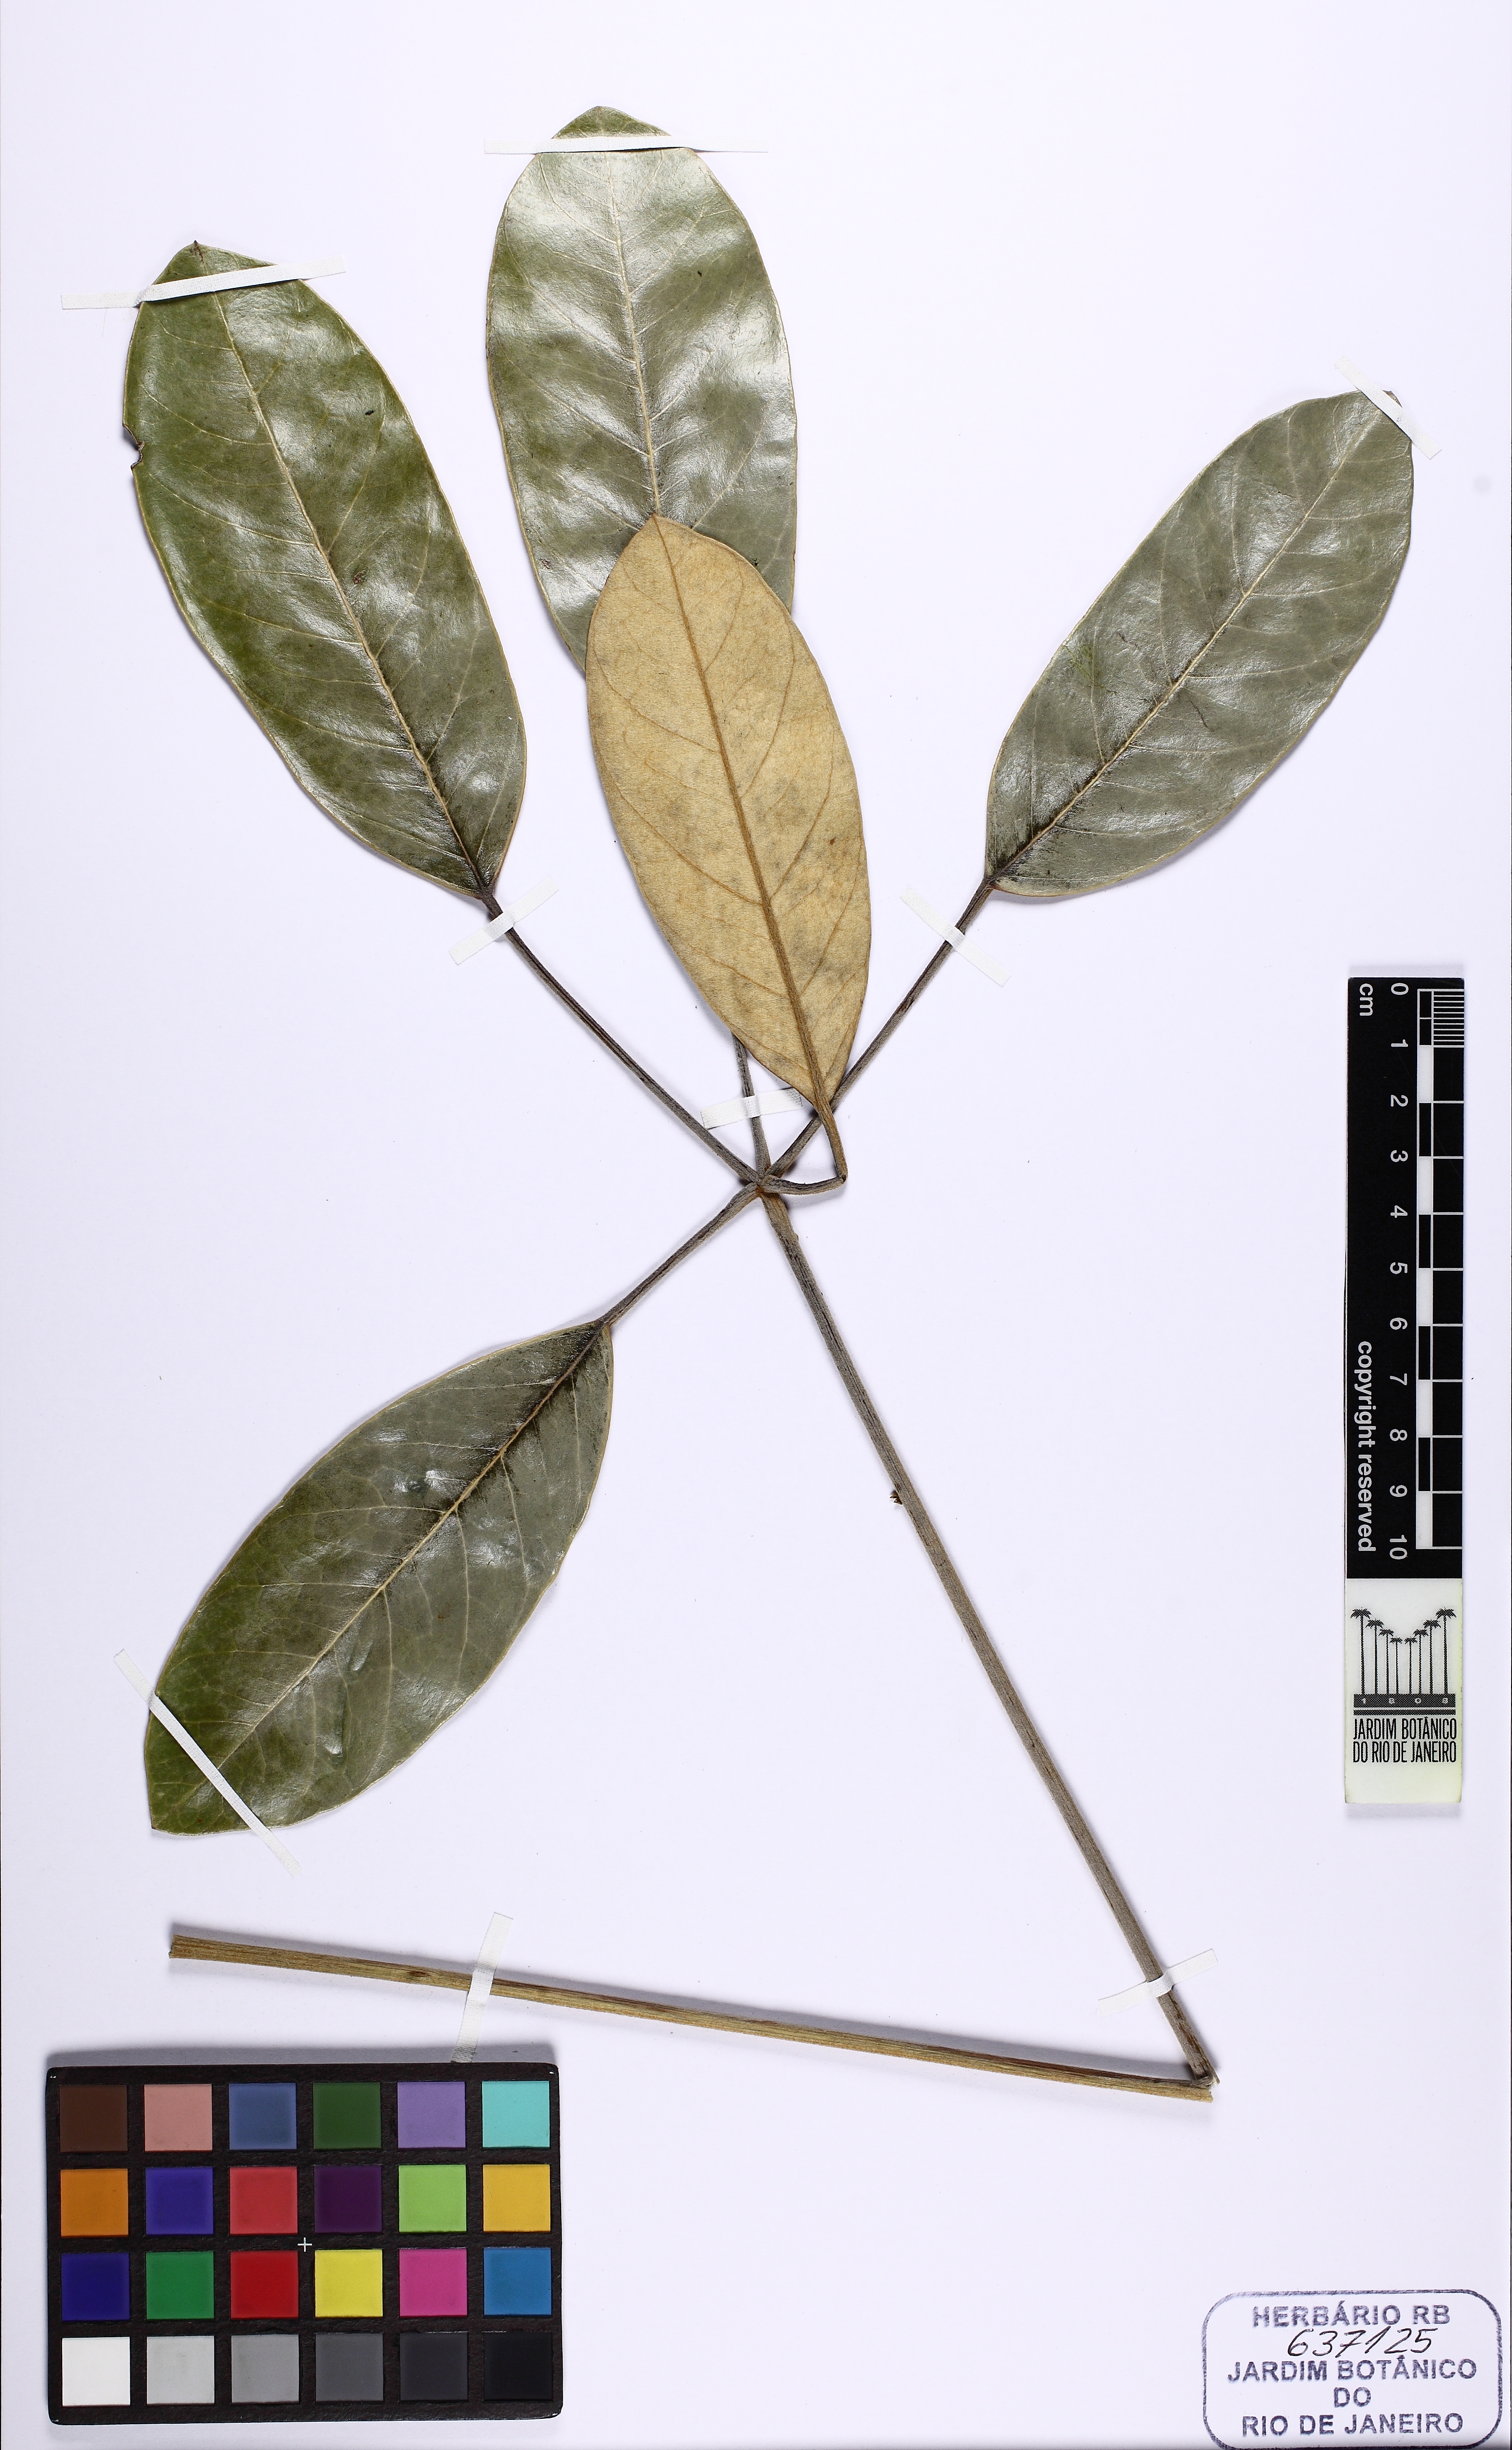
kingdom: Plantae
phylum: Tracheophyta
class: Magnoliopsida
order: Apiales
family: Araliaceae
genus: Didymopanax
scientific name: Didymopanax cordatus
